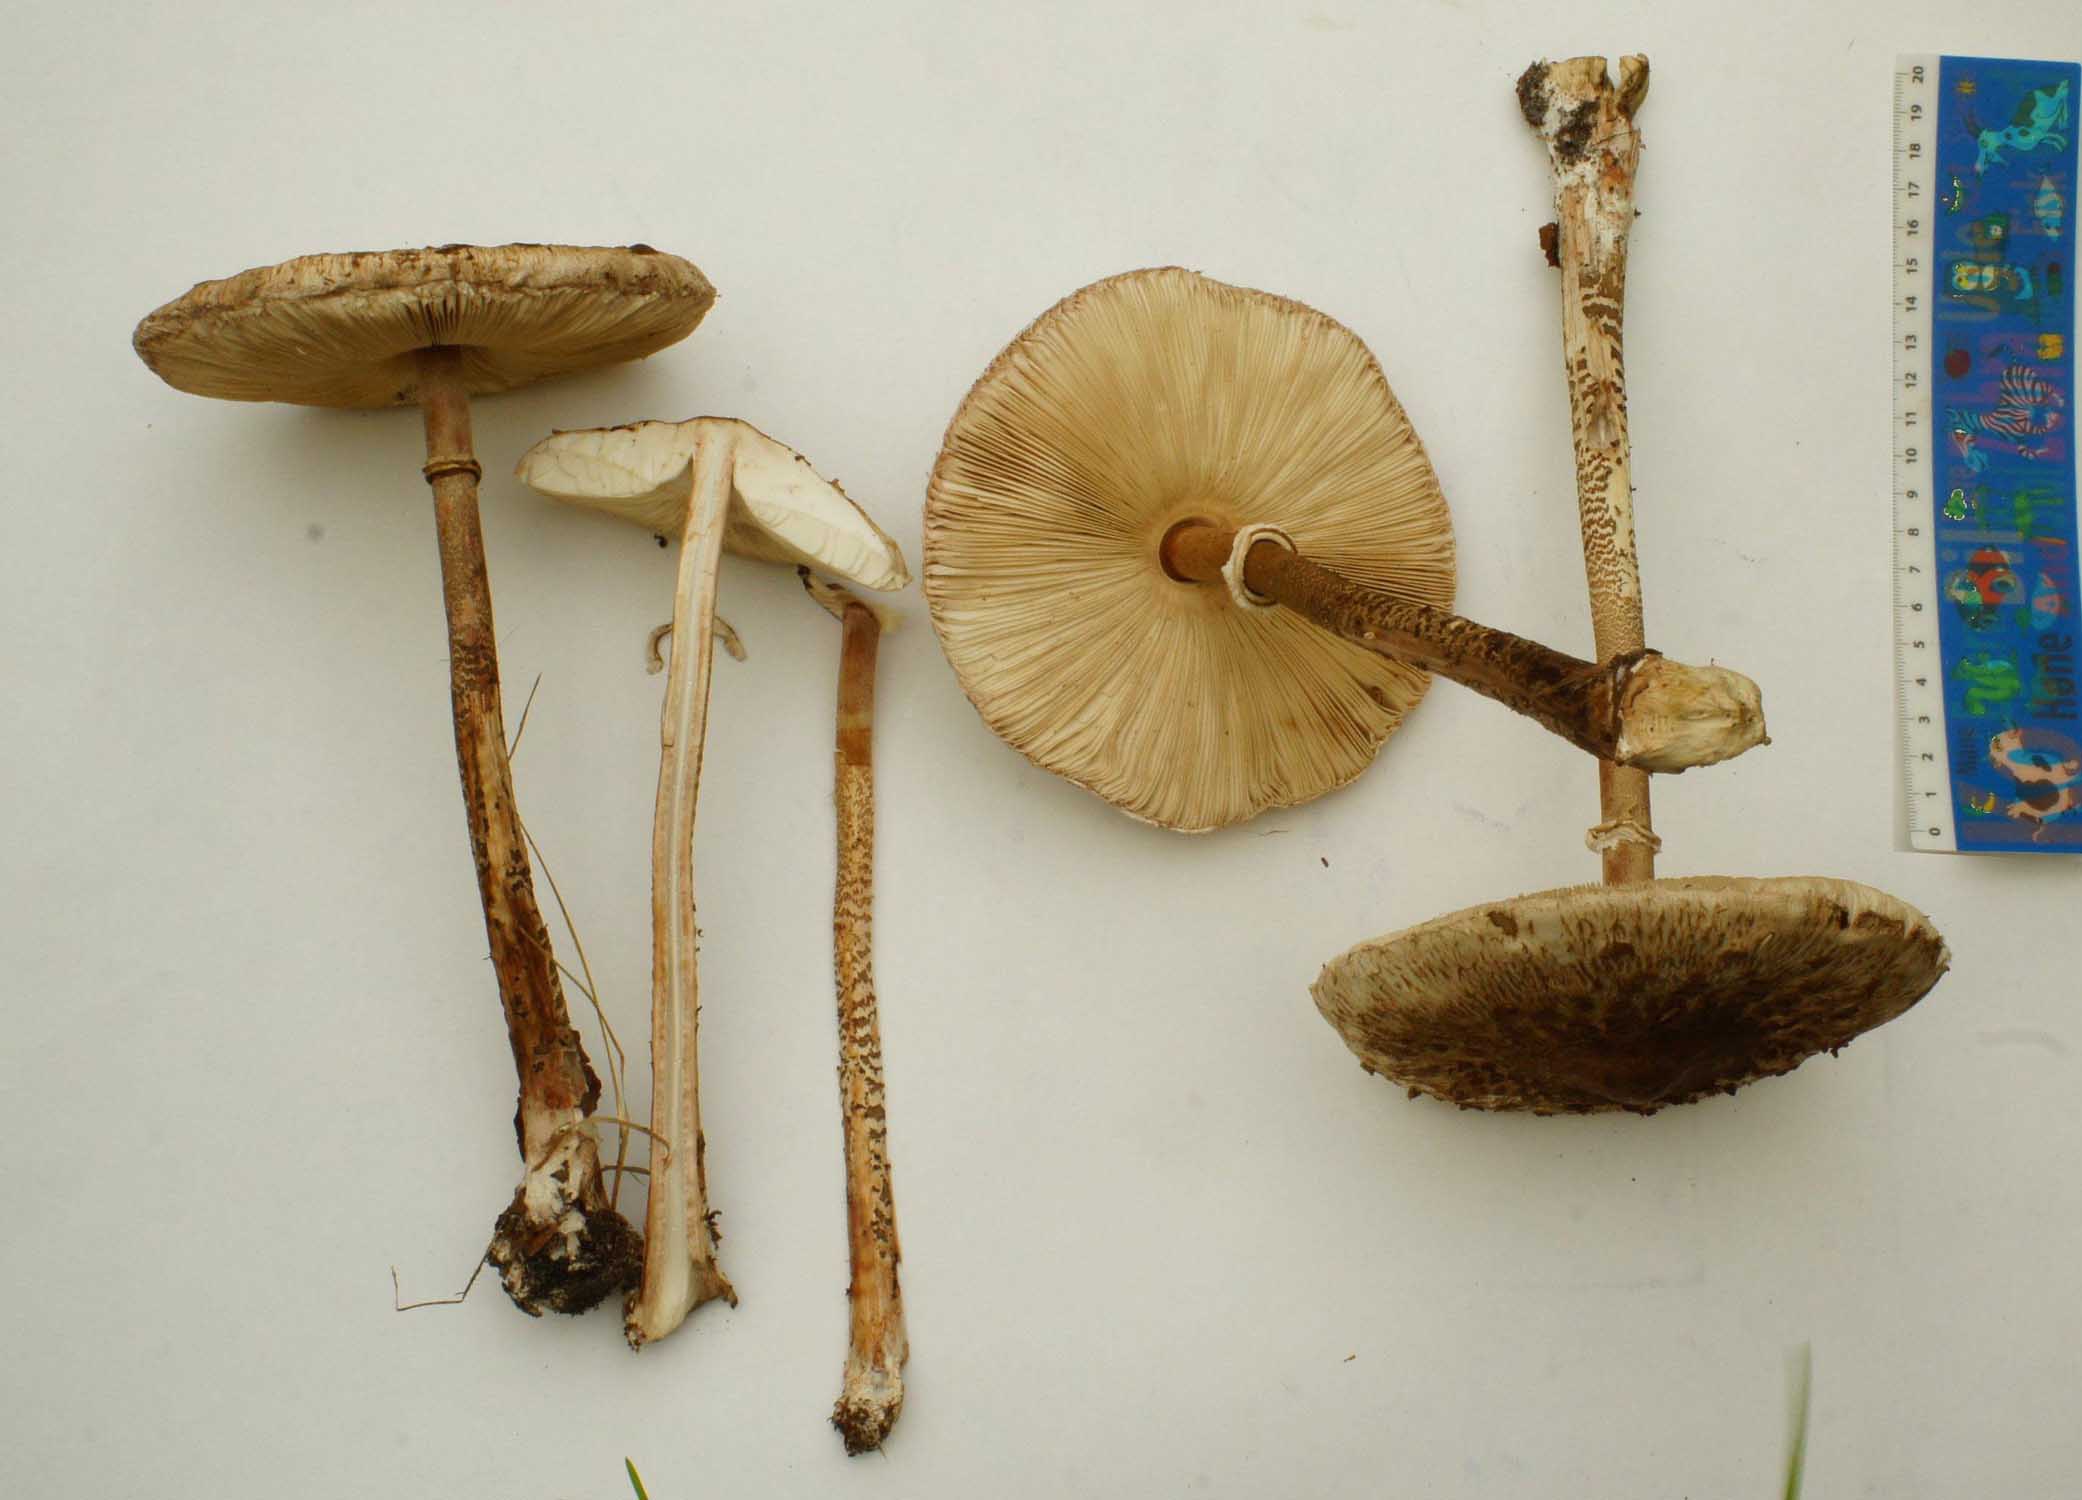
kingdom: Fungi
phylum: Basidiomycota
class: Agaricomycetes
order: Agaricales
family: Agaricaceae
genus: Macrolepiota
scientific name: Macrolepiota procera
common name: stor kæmpeparasolhat
